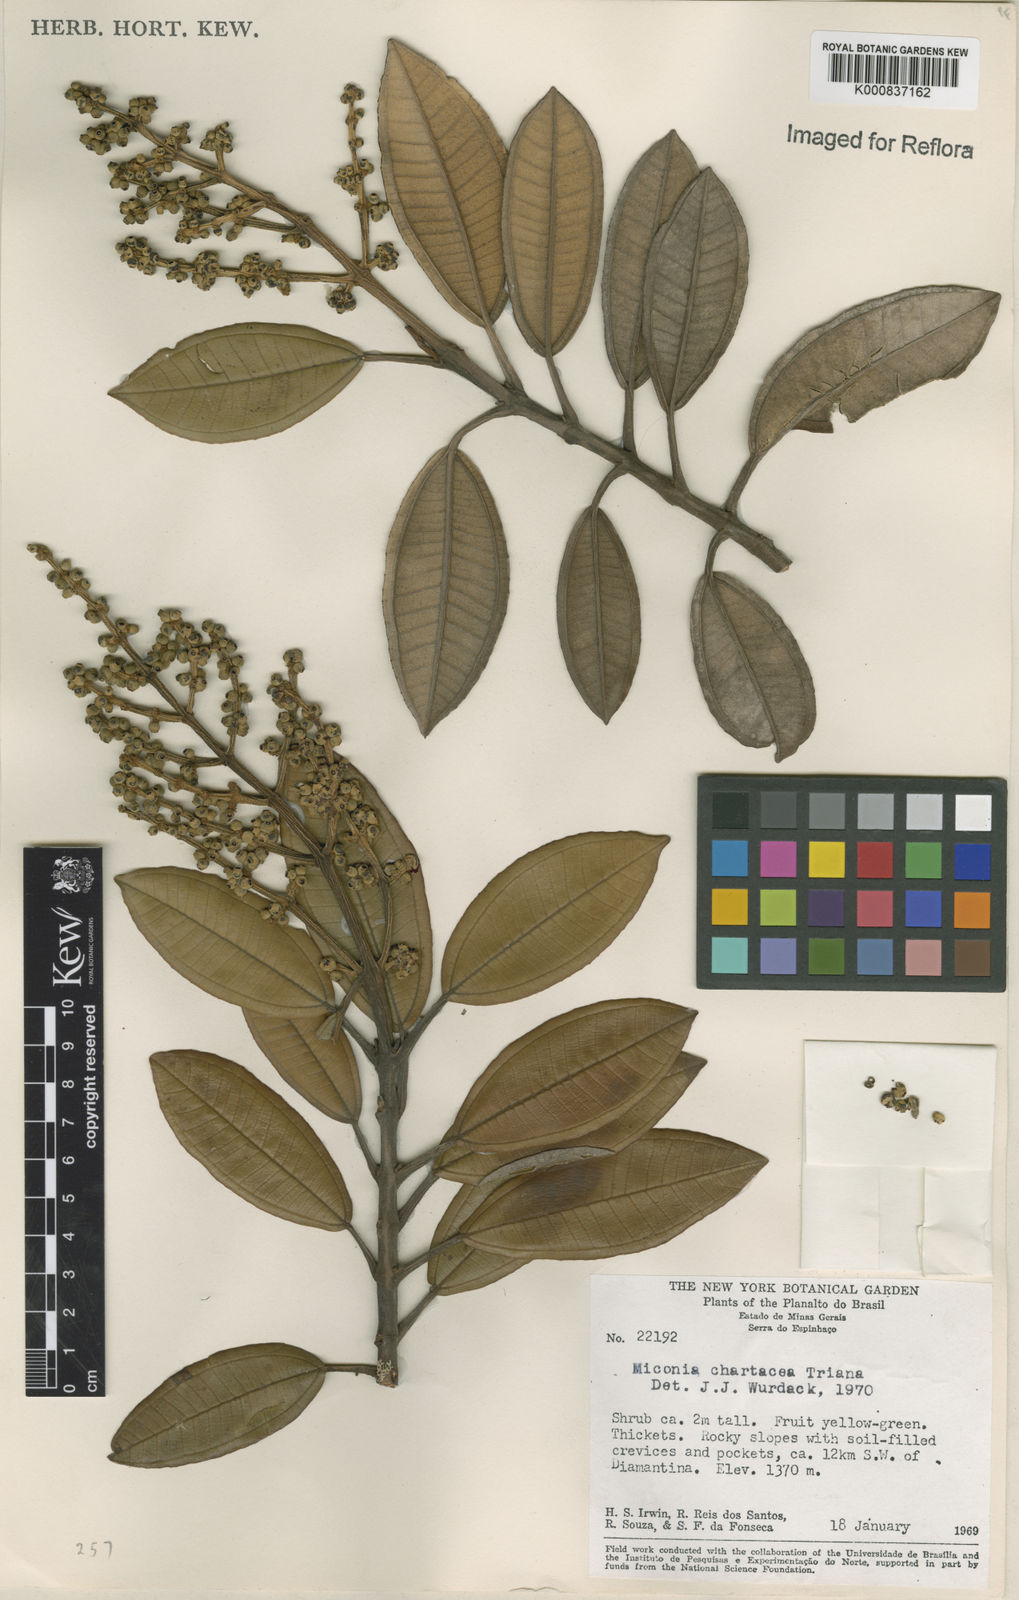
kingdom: Plantae
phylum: Tracheophyta
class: Magnoliopsida
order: Myrtales
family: Melastomataceae
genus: Miconia
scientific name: Miconia chartacea
